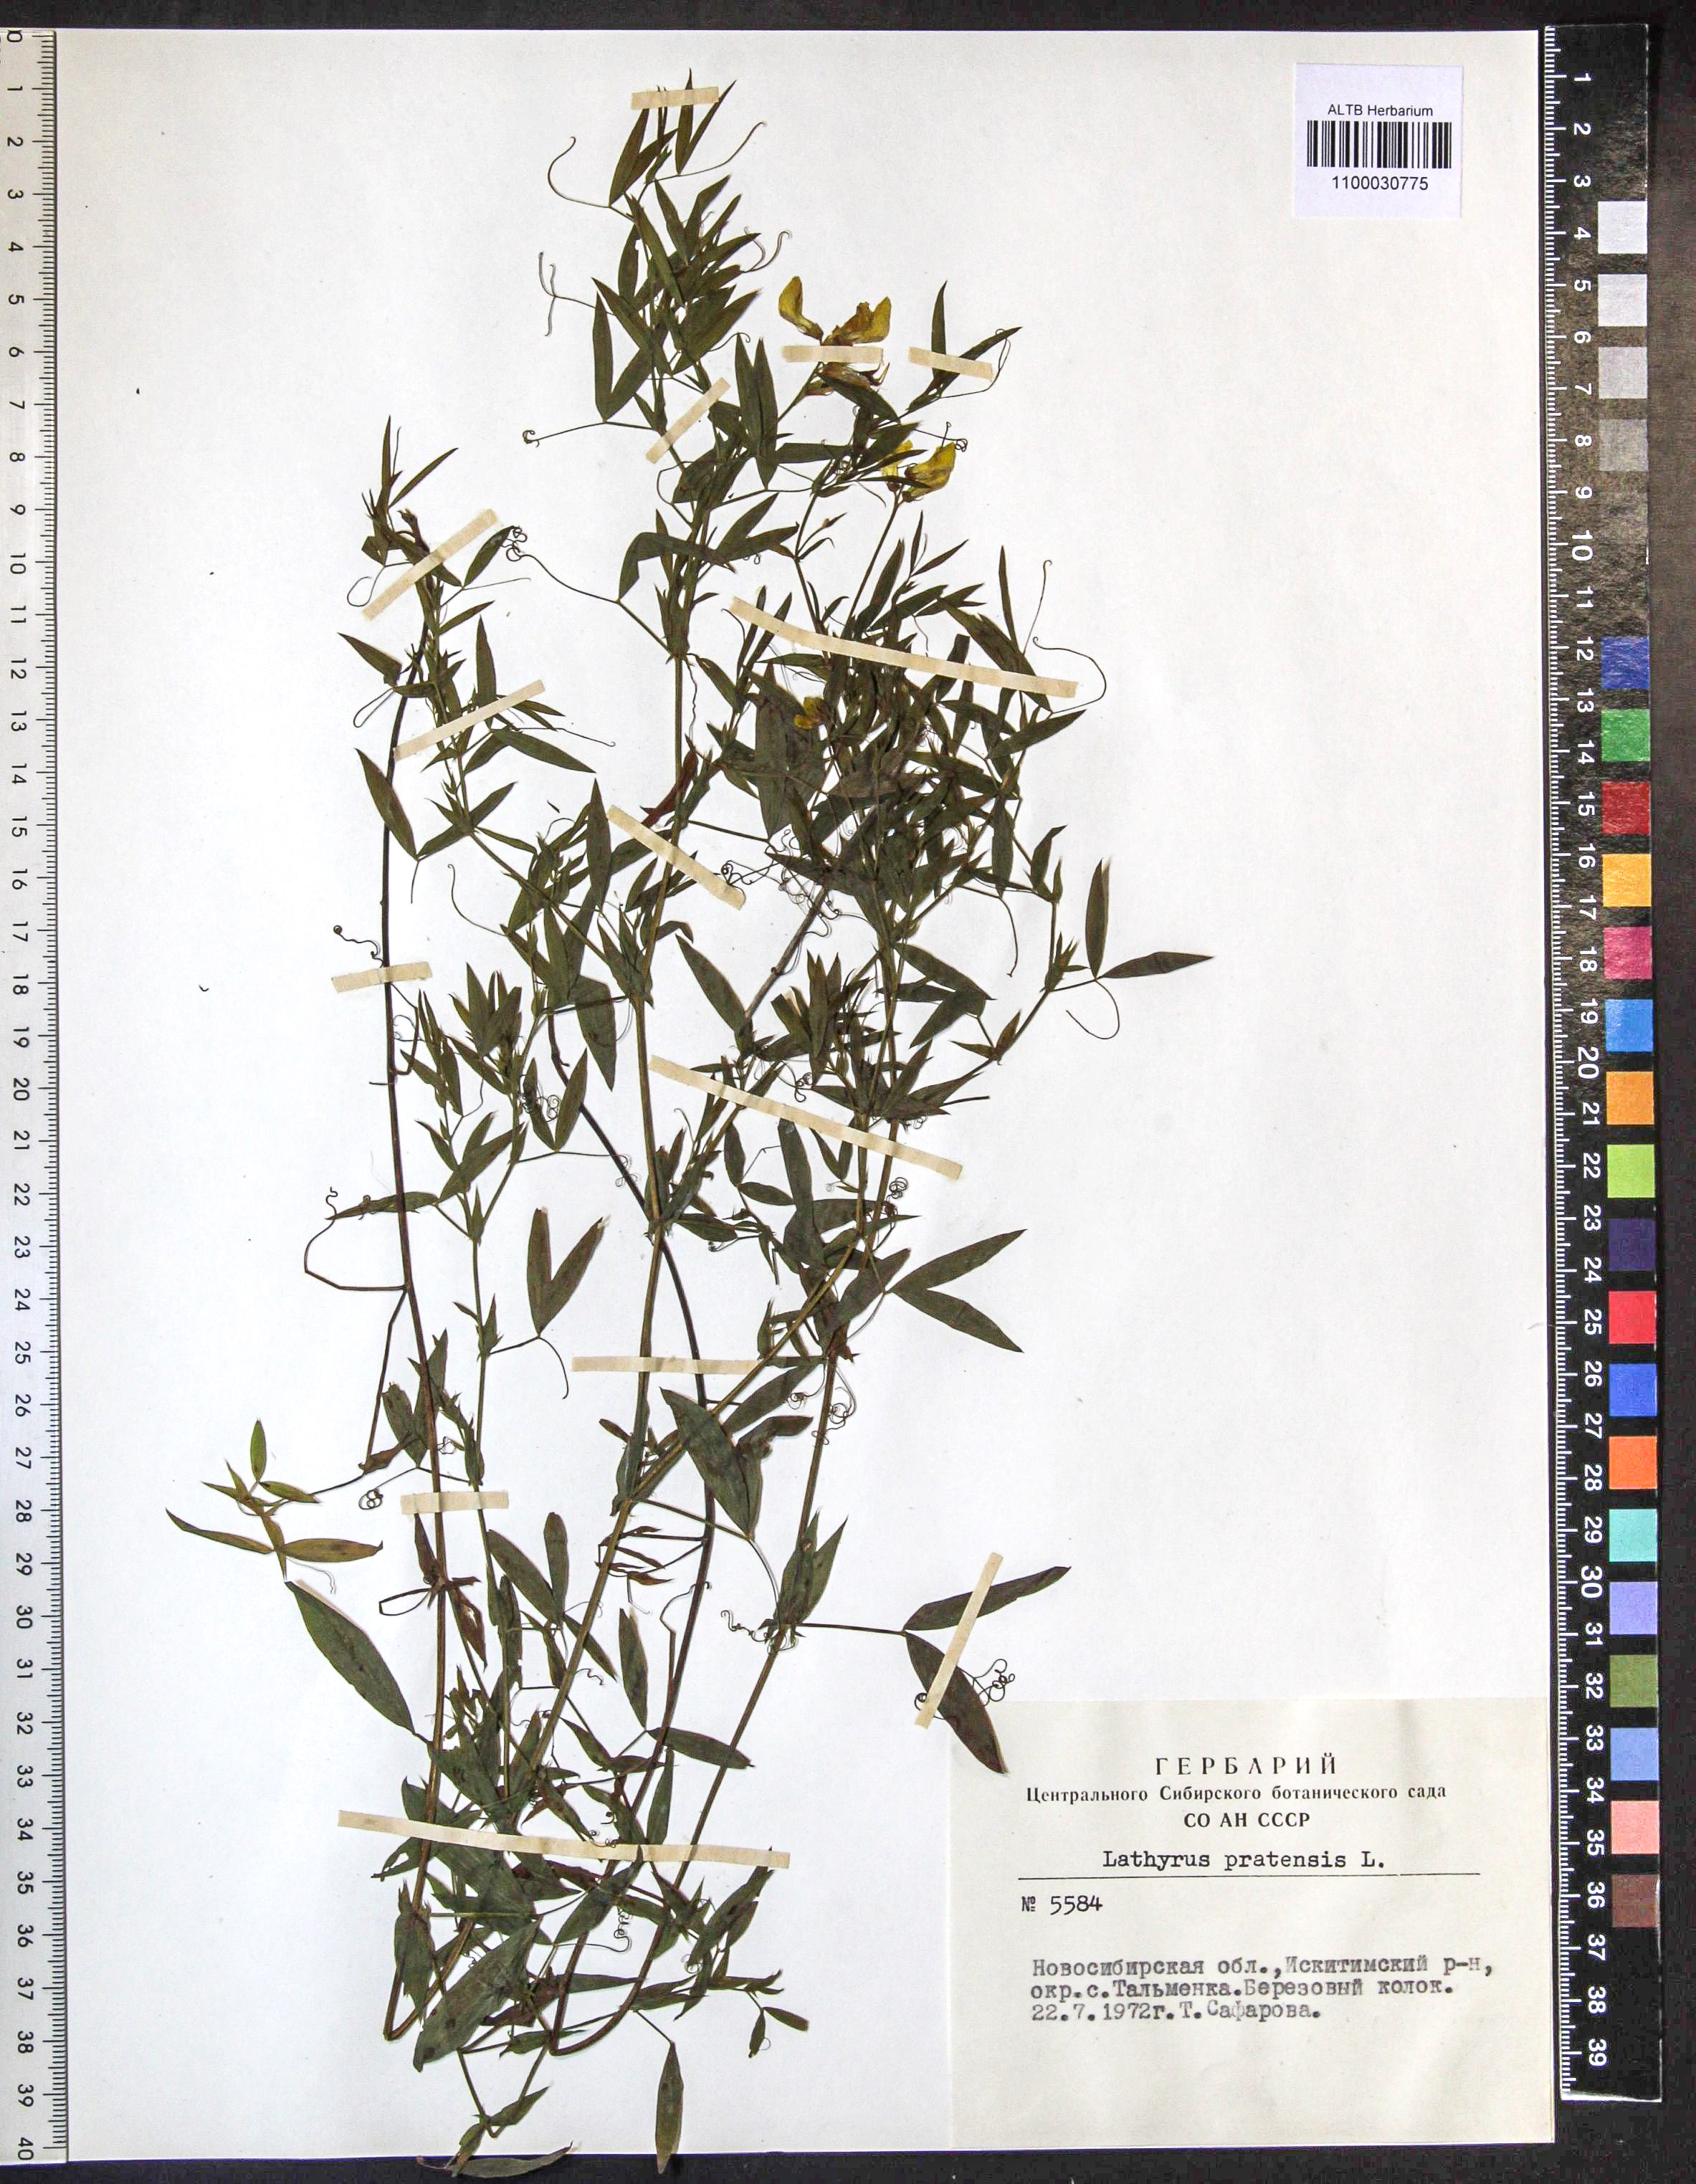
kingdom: Plantae
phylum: Tracheophyta
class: Magnoliopsida
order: Fabales
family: Fabaceae
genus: Lathyrus
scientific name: Lathyrus pratensis
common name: Meadow vetchling
